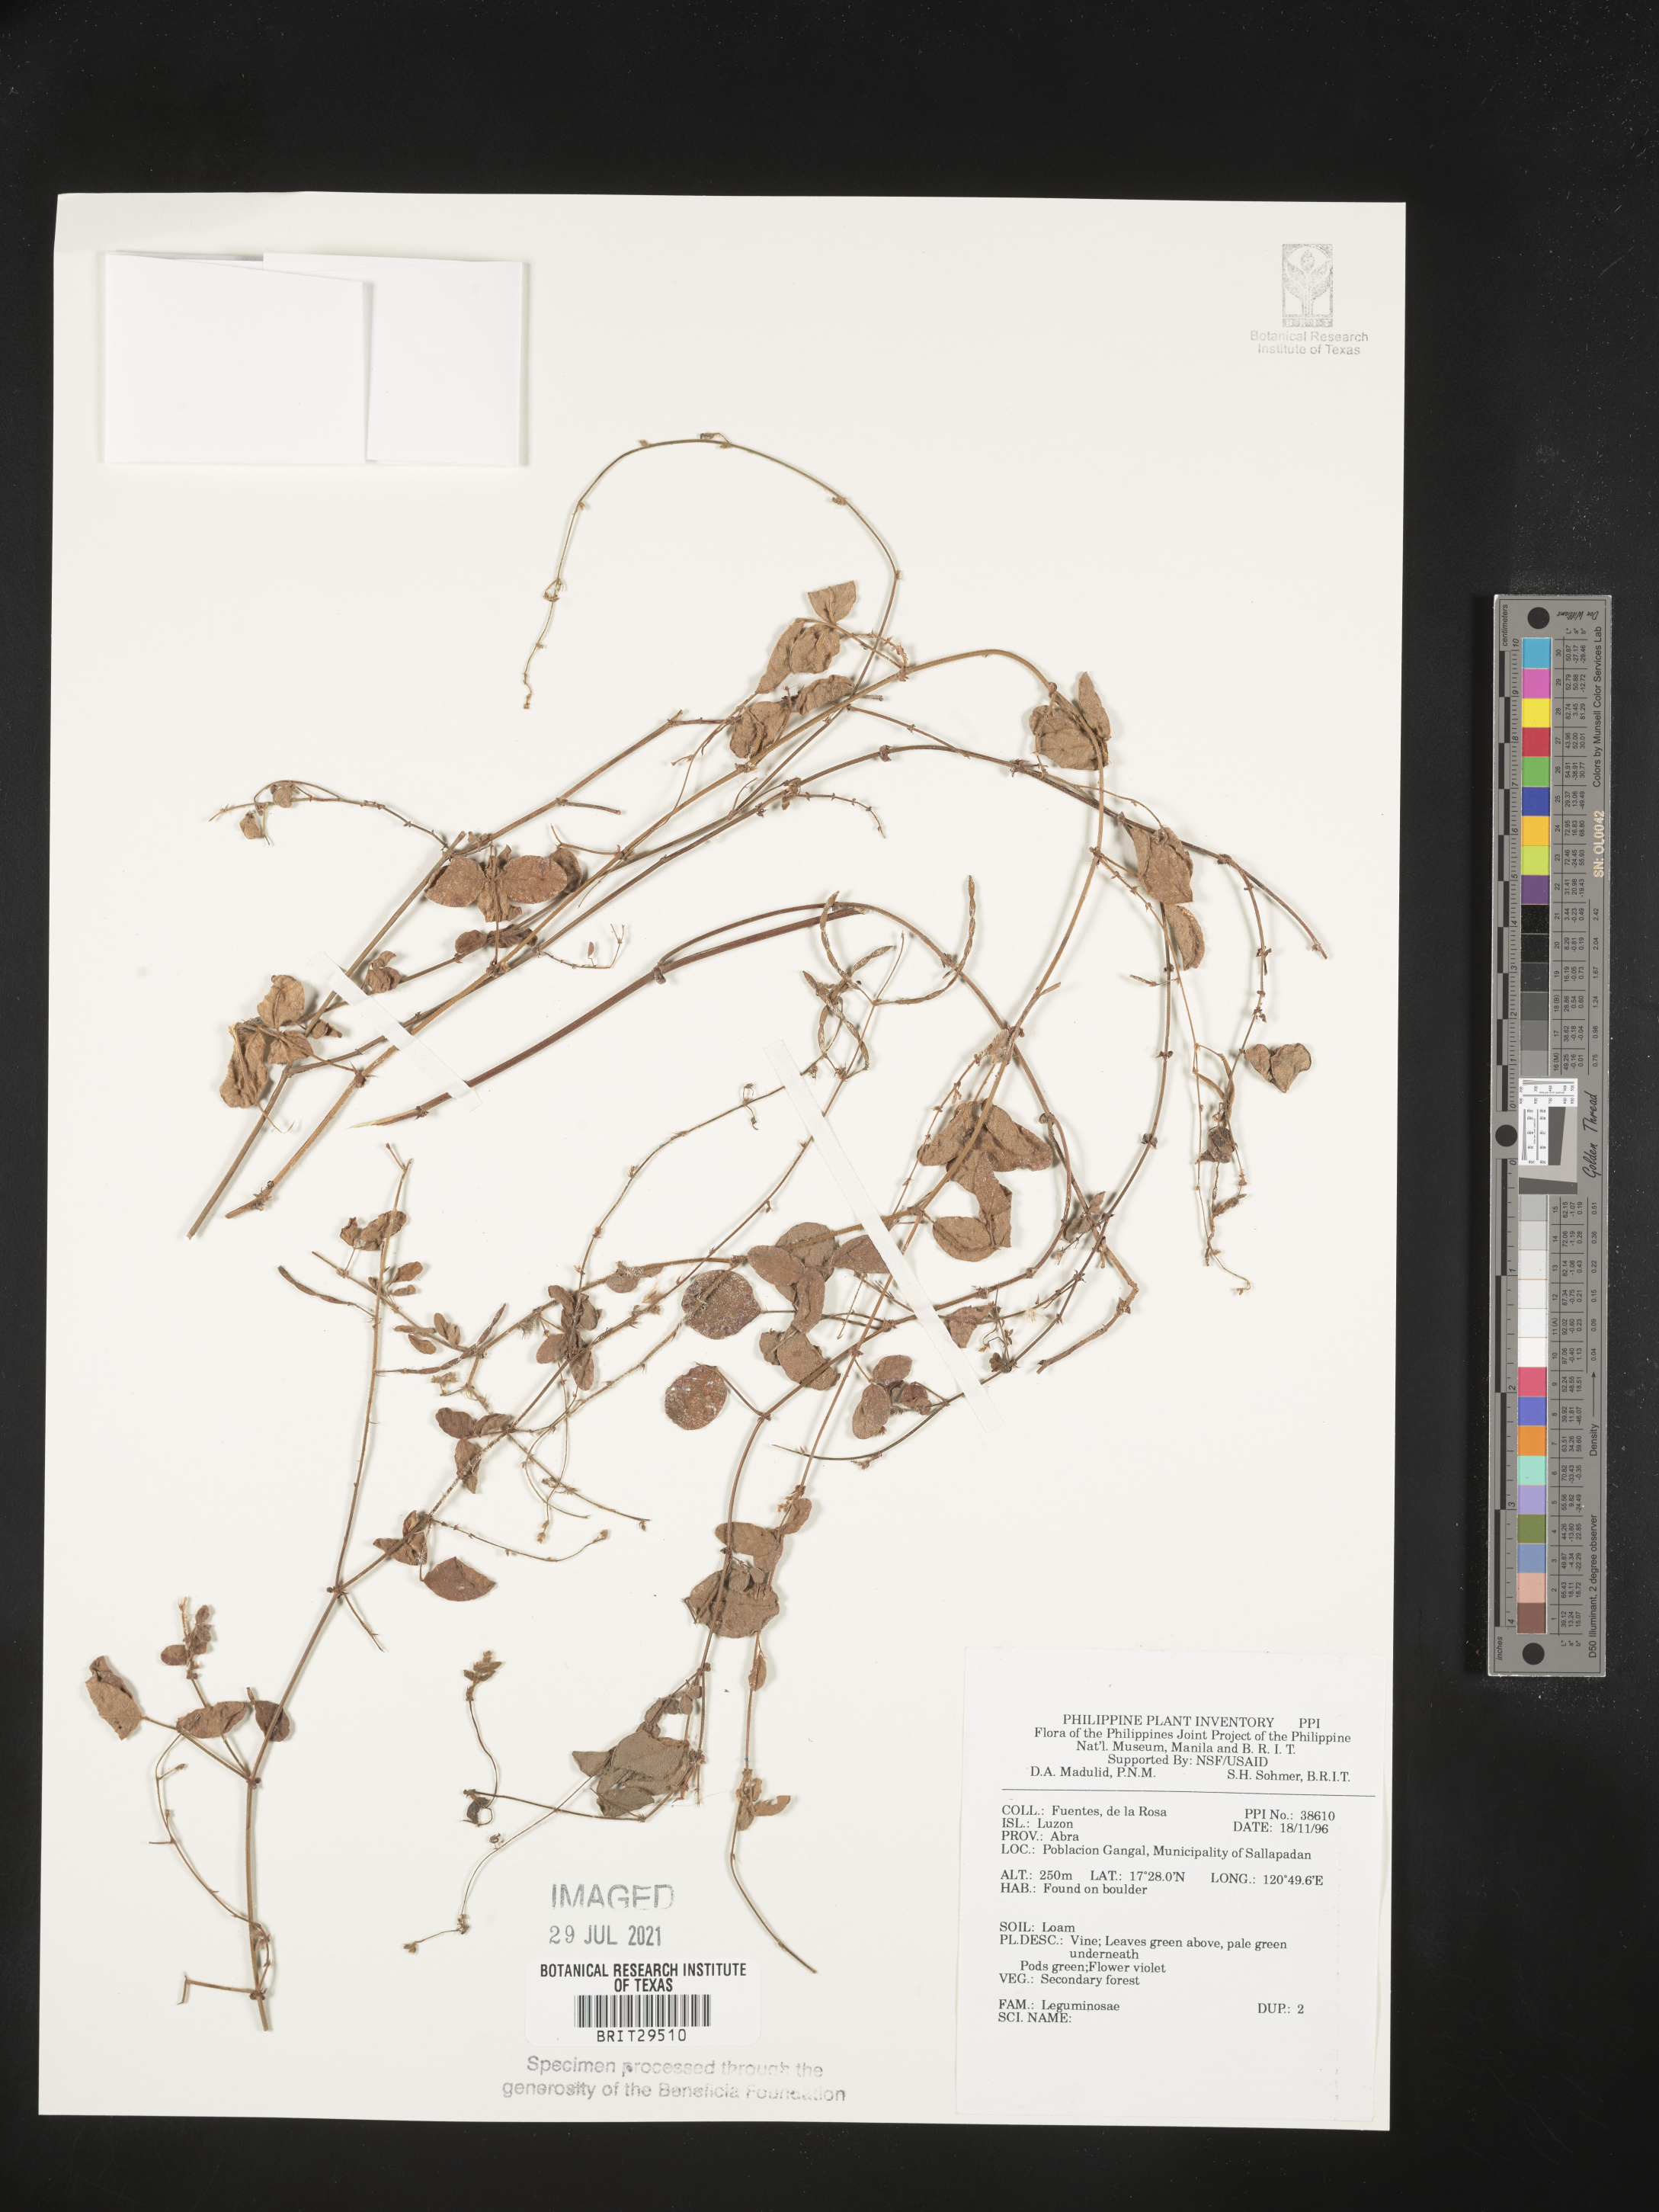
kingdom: Plantae
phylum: Tracheophyta
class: Magnoliopsida
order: Fabales
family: Fabaceae
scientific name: Fabaceae
